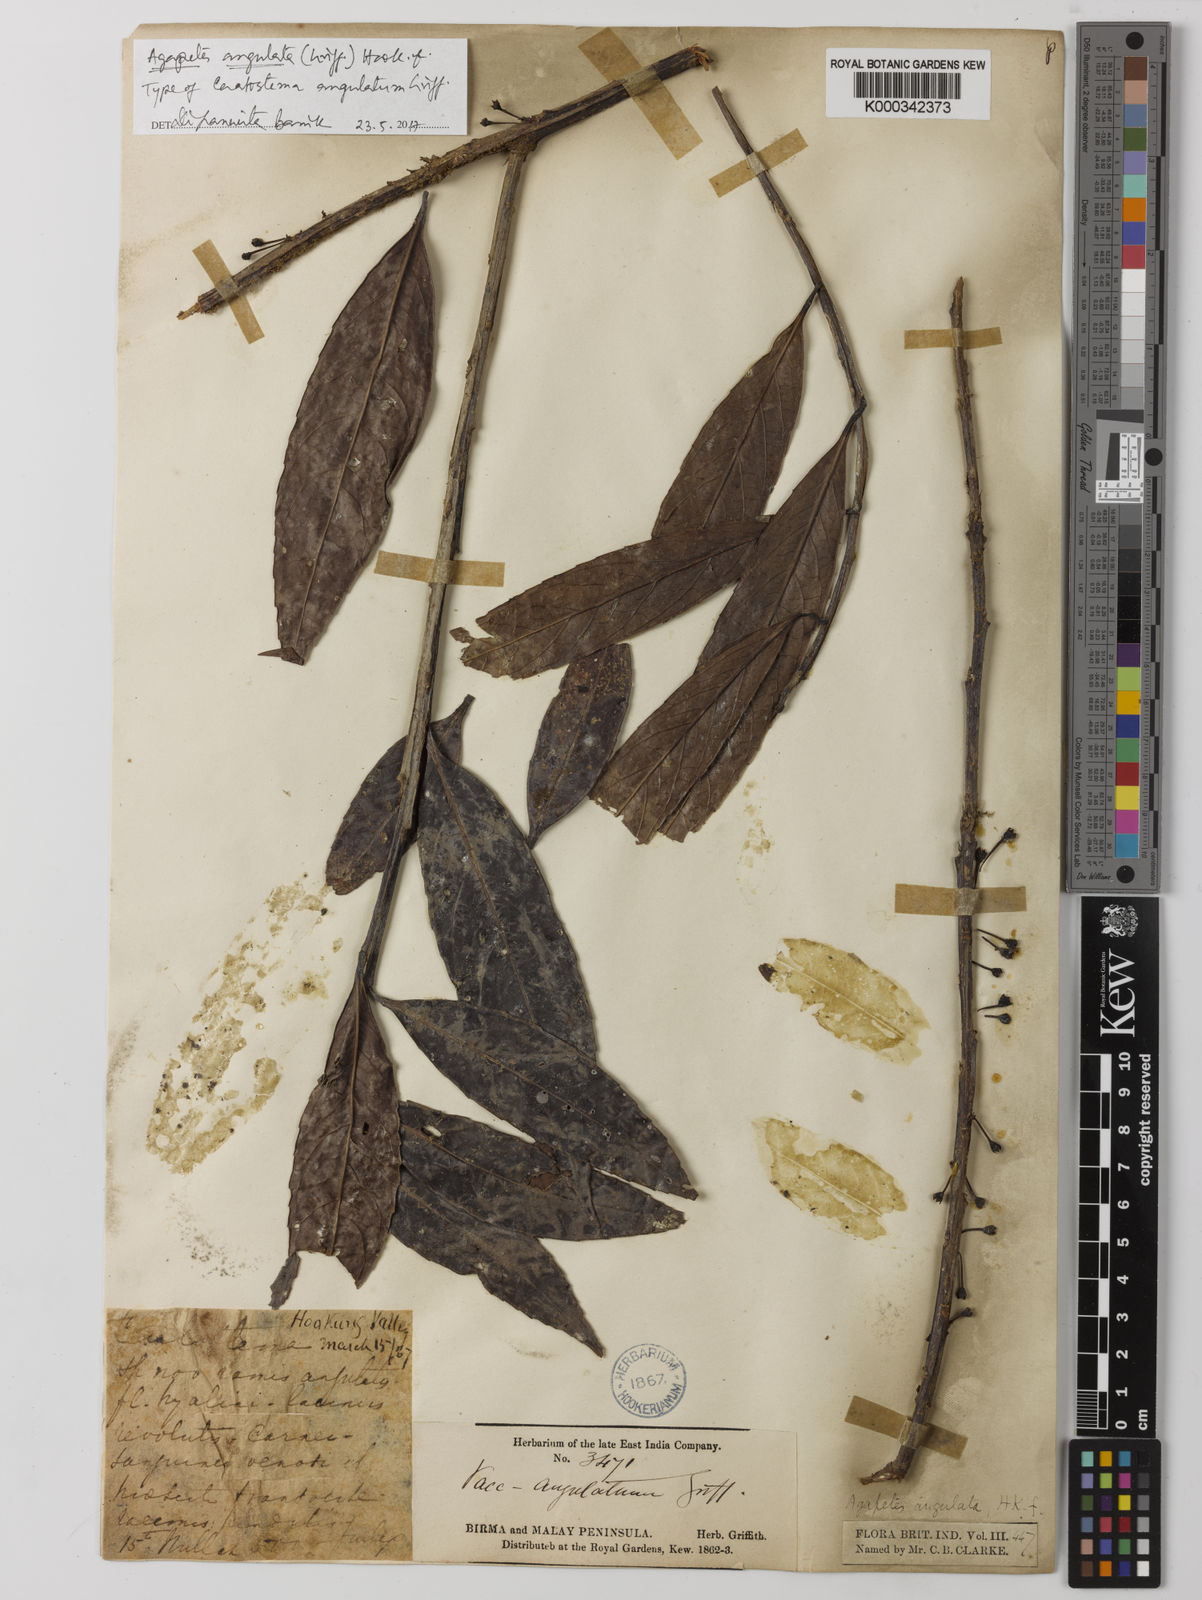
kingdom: Plantae
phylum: Tracheophyta
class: Magnoliopsida
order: Ericales
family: Ericaceae
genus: Agapetes
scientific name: Agapetes angulata
